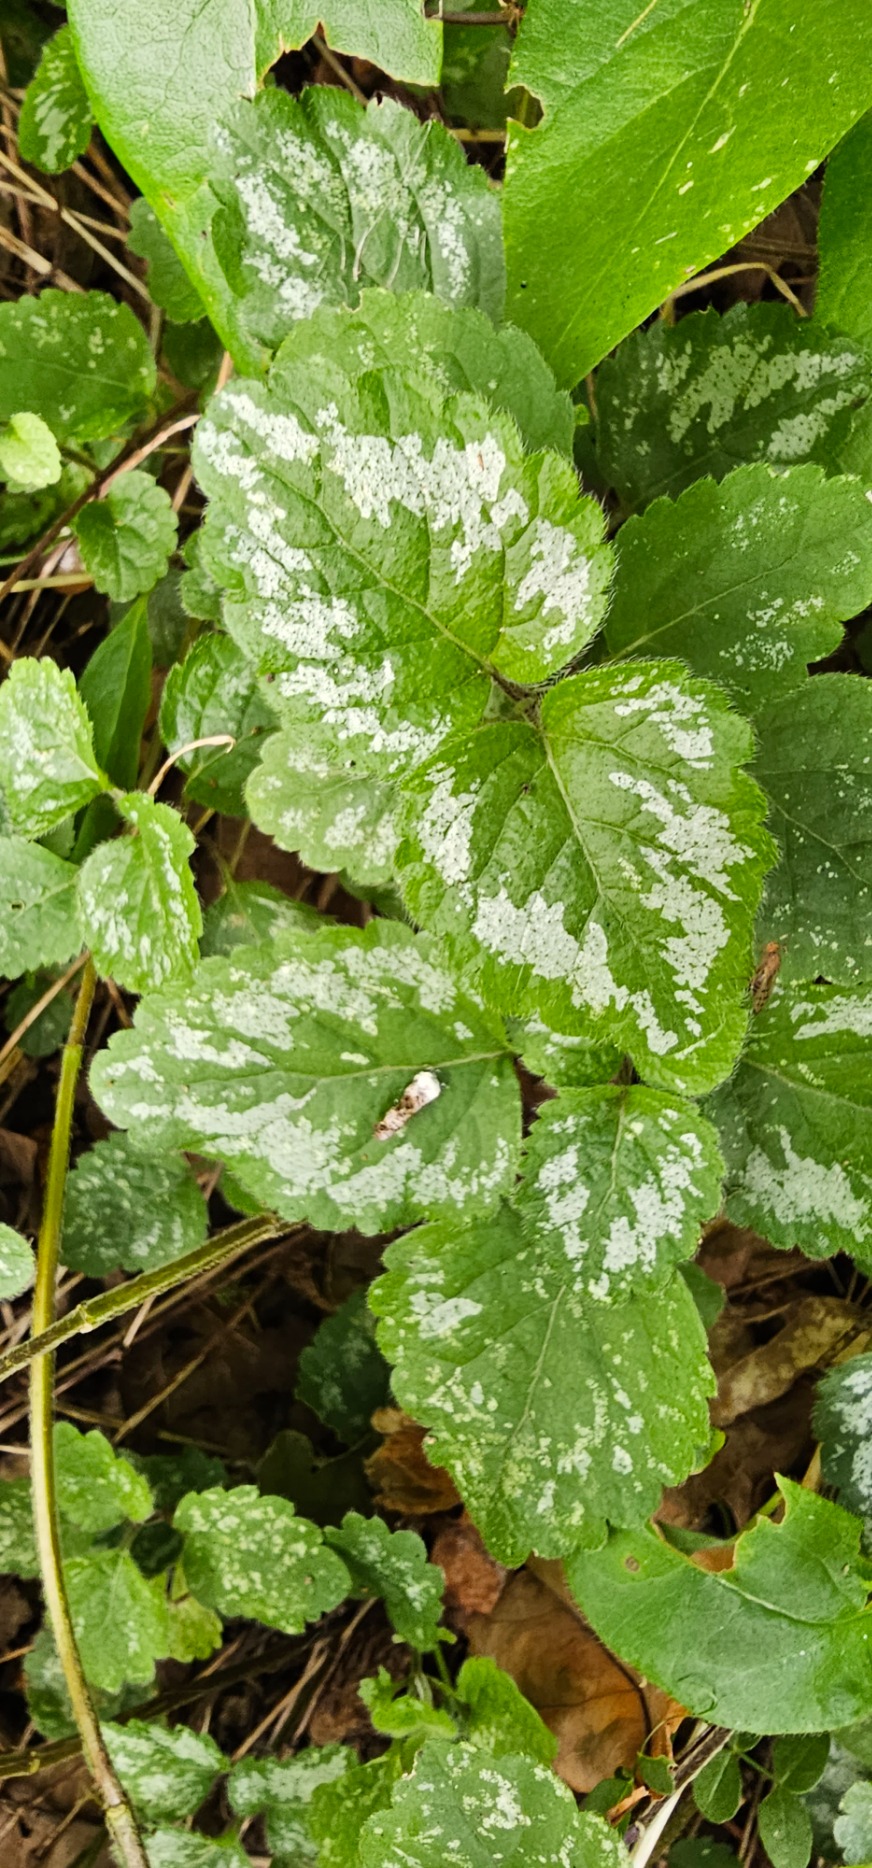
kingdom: Plantae
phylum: Tracheophyta
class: Magnoliopsida
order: Lamiales
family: Lamiaceae
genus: Lamium
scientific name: Lamium galeobdolon
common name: Have-guldnælde
